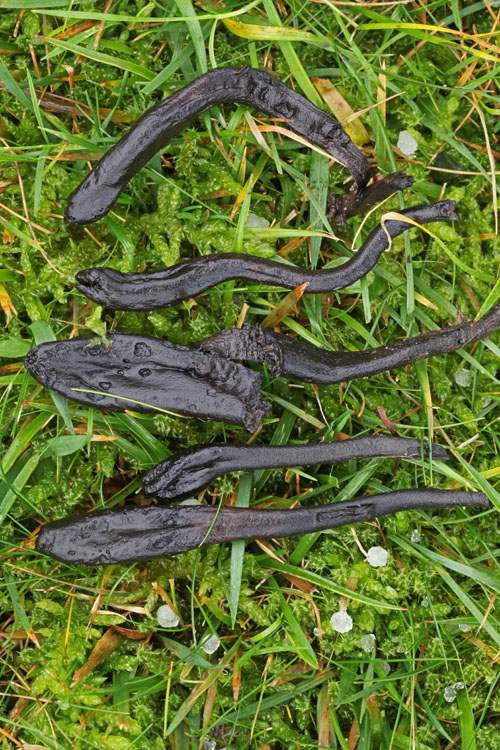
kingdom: Fungi
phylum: Ascomycota
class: Geoglossomycetes
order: Geoglossales
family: Geoglossaceae
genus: Trichoglossum
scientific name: Trichoglossum hirsutum
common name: håret jordtunge
